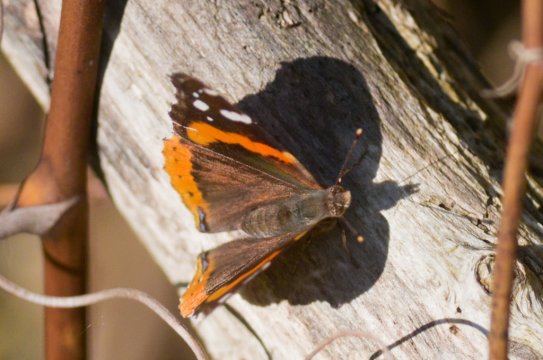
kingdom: Animalia
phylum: Arthropoda
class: Insecta
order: Lepidoptera
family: Nymphalidae
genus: Vanessa
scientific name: Vanessa atalanta
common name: Red Admiral
